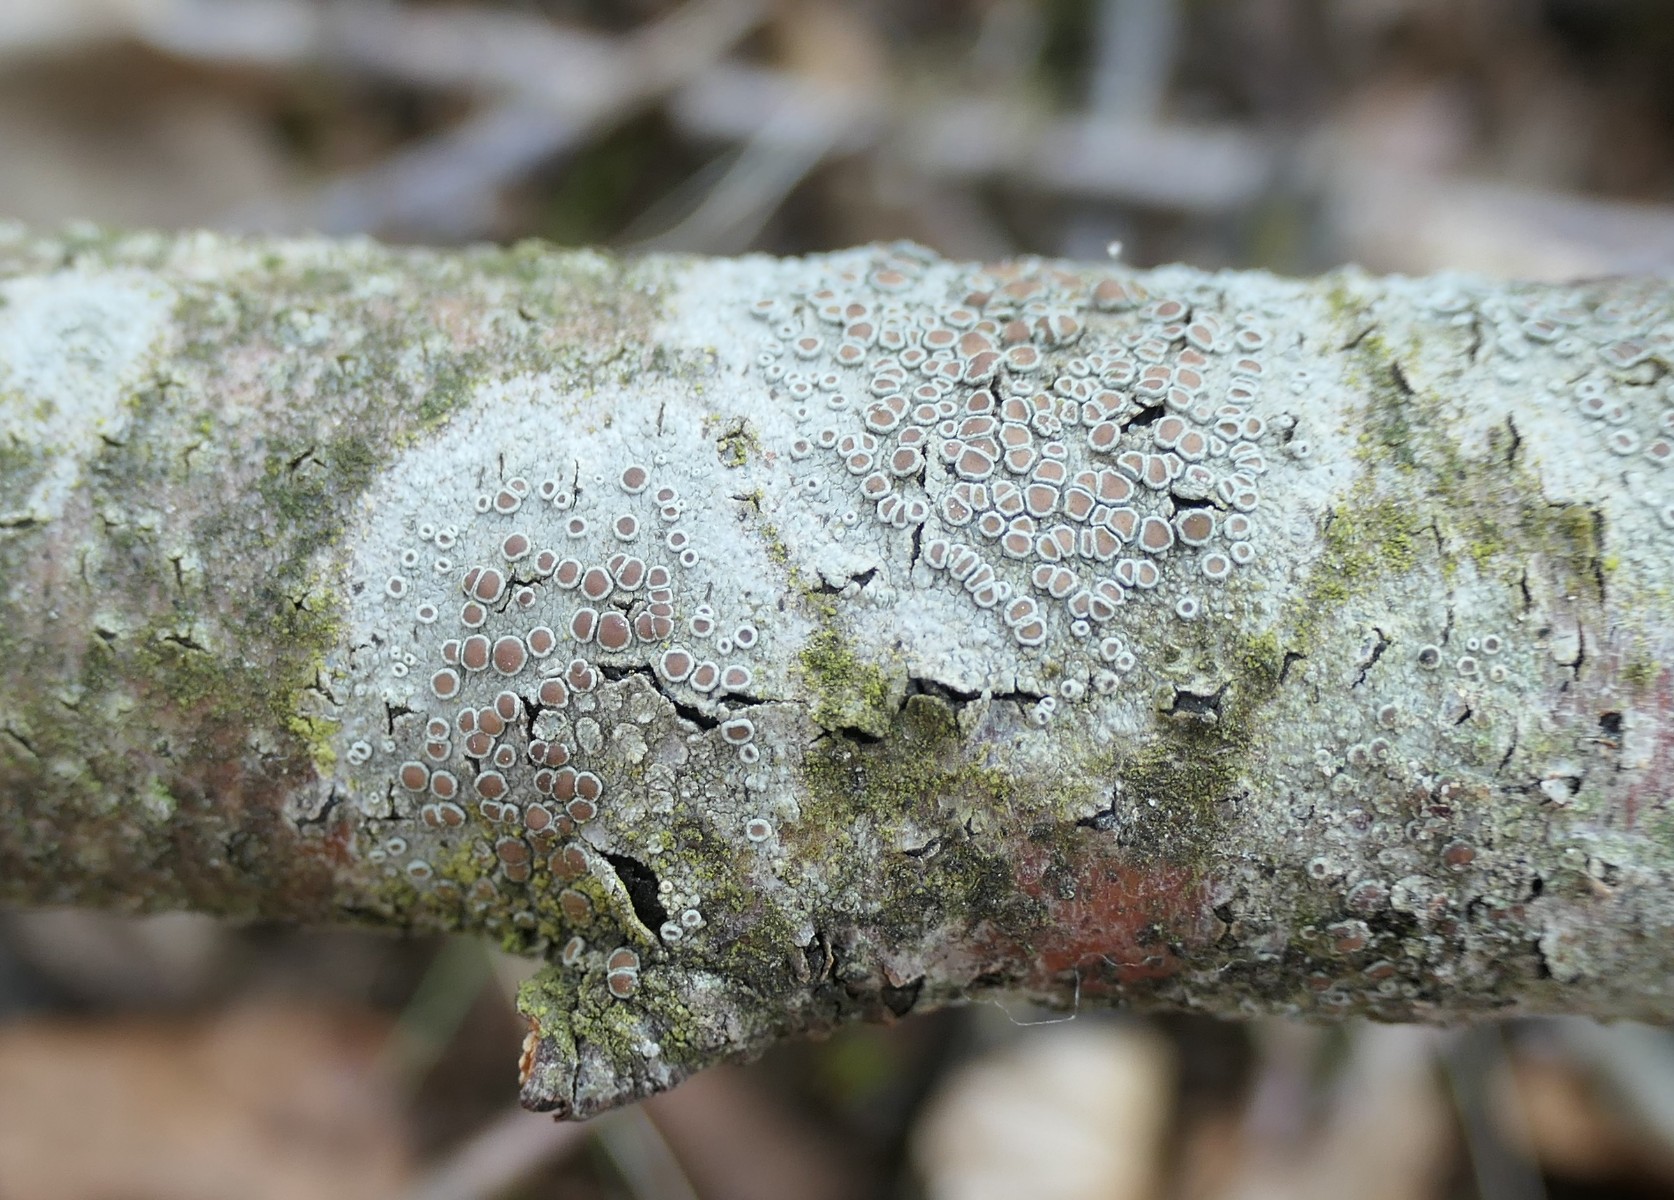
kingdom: Fungi
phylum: Ascomycota
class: Lecanoromycetes
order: Lecanorales
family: Lecanoraceae
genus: Lecanora
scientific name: Lecanora chlarotera
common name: brun kantskivelav
